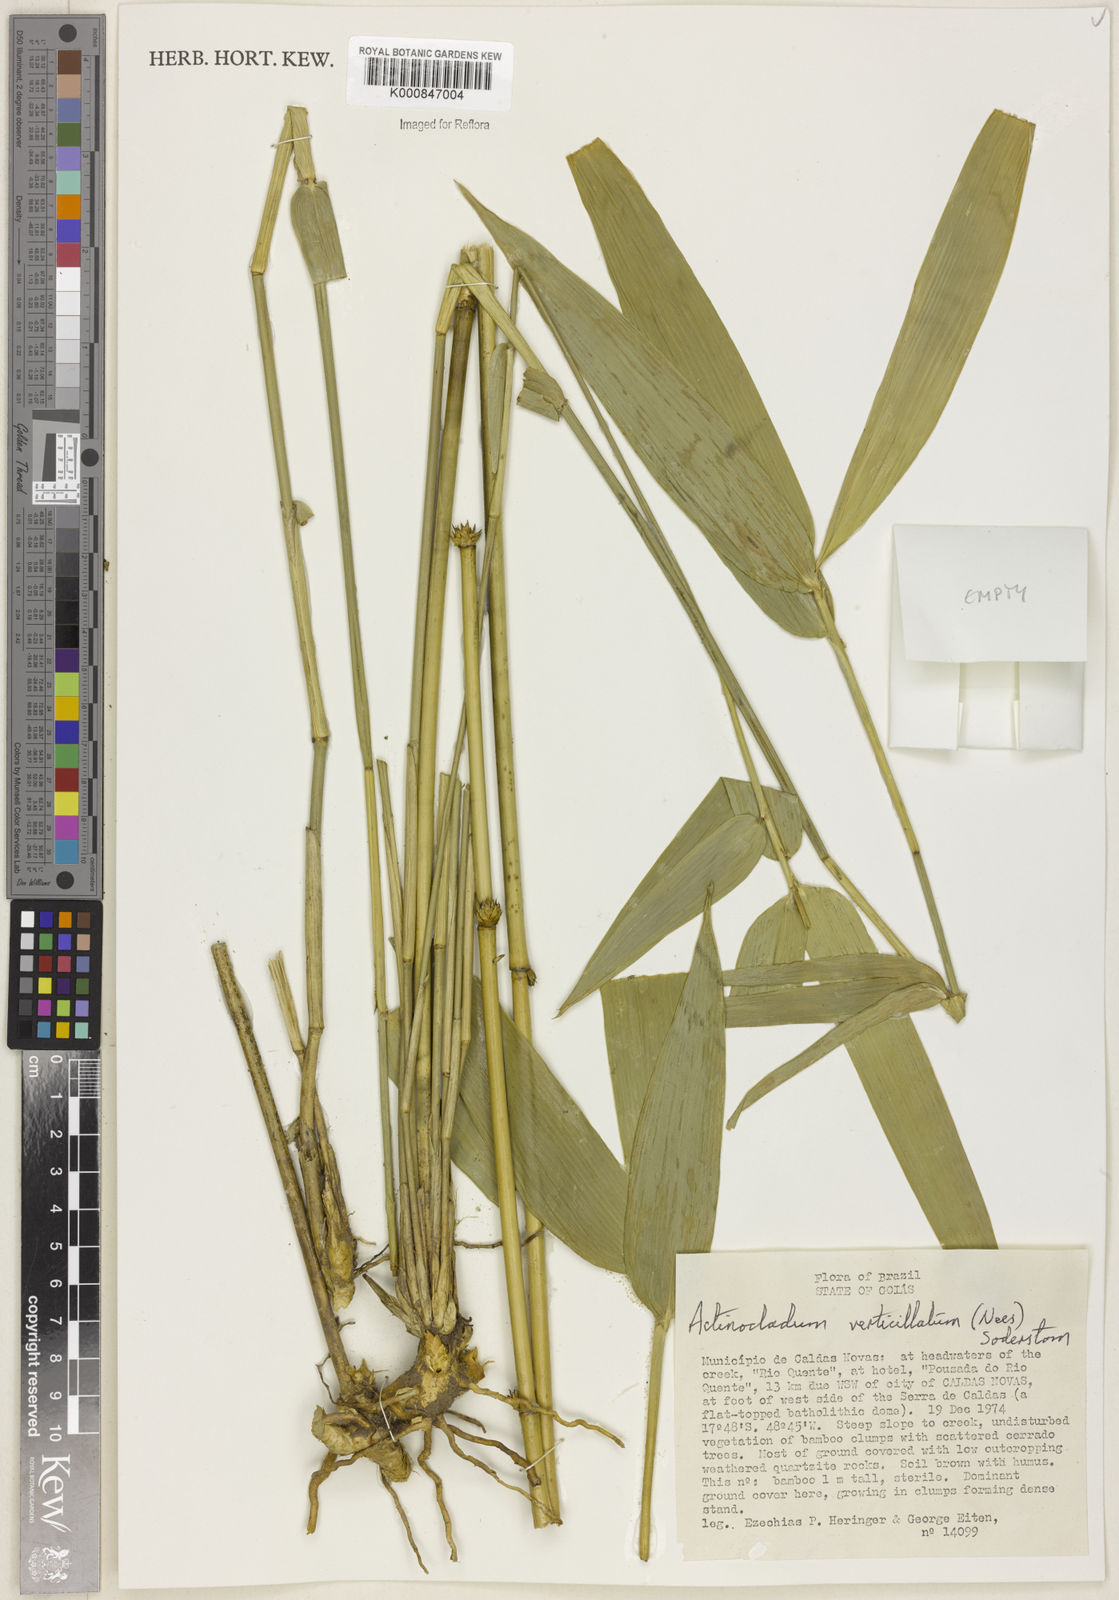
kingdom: Plantae
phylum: Tracheophyta
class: Liliopsida
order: Poales
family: Poaceae
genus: Actinocladum
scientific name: Actinocladum verticillatum
